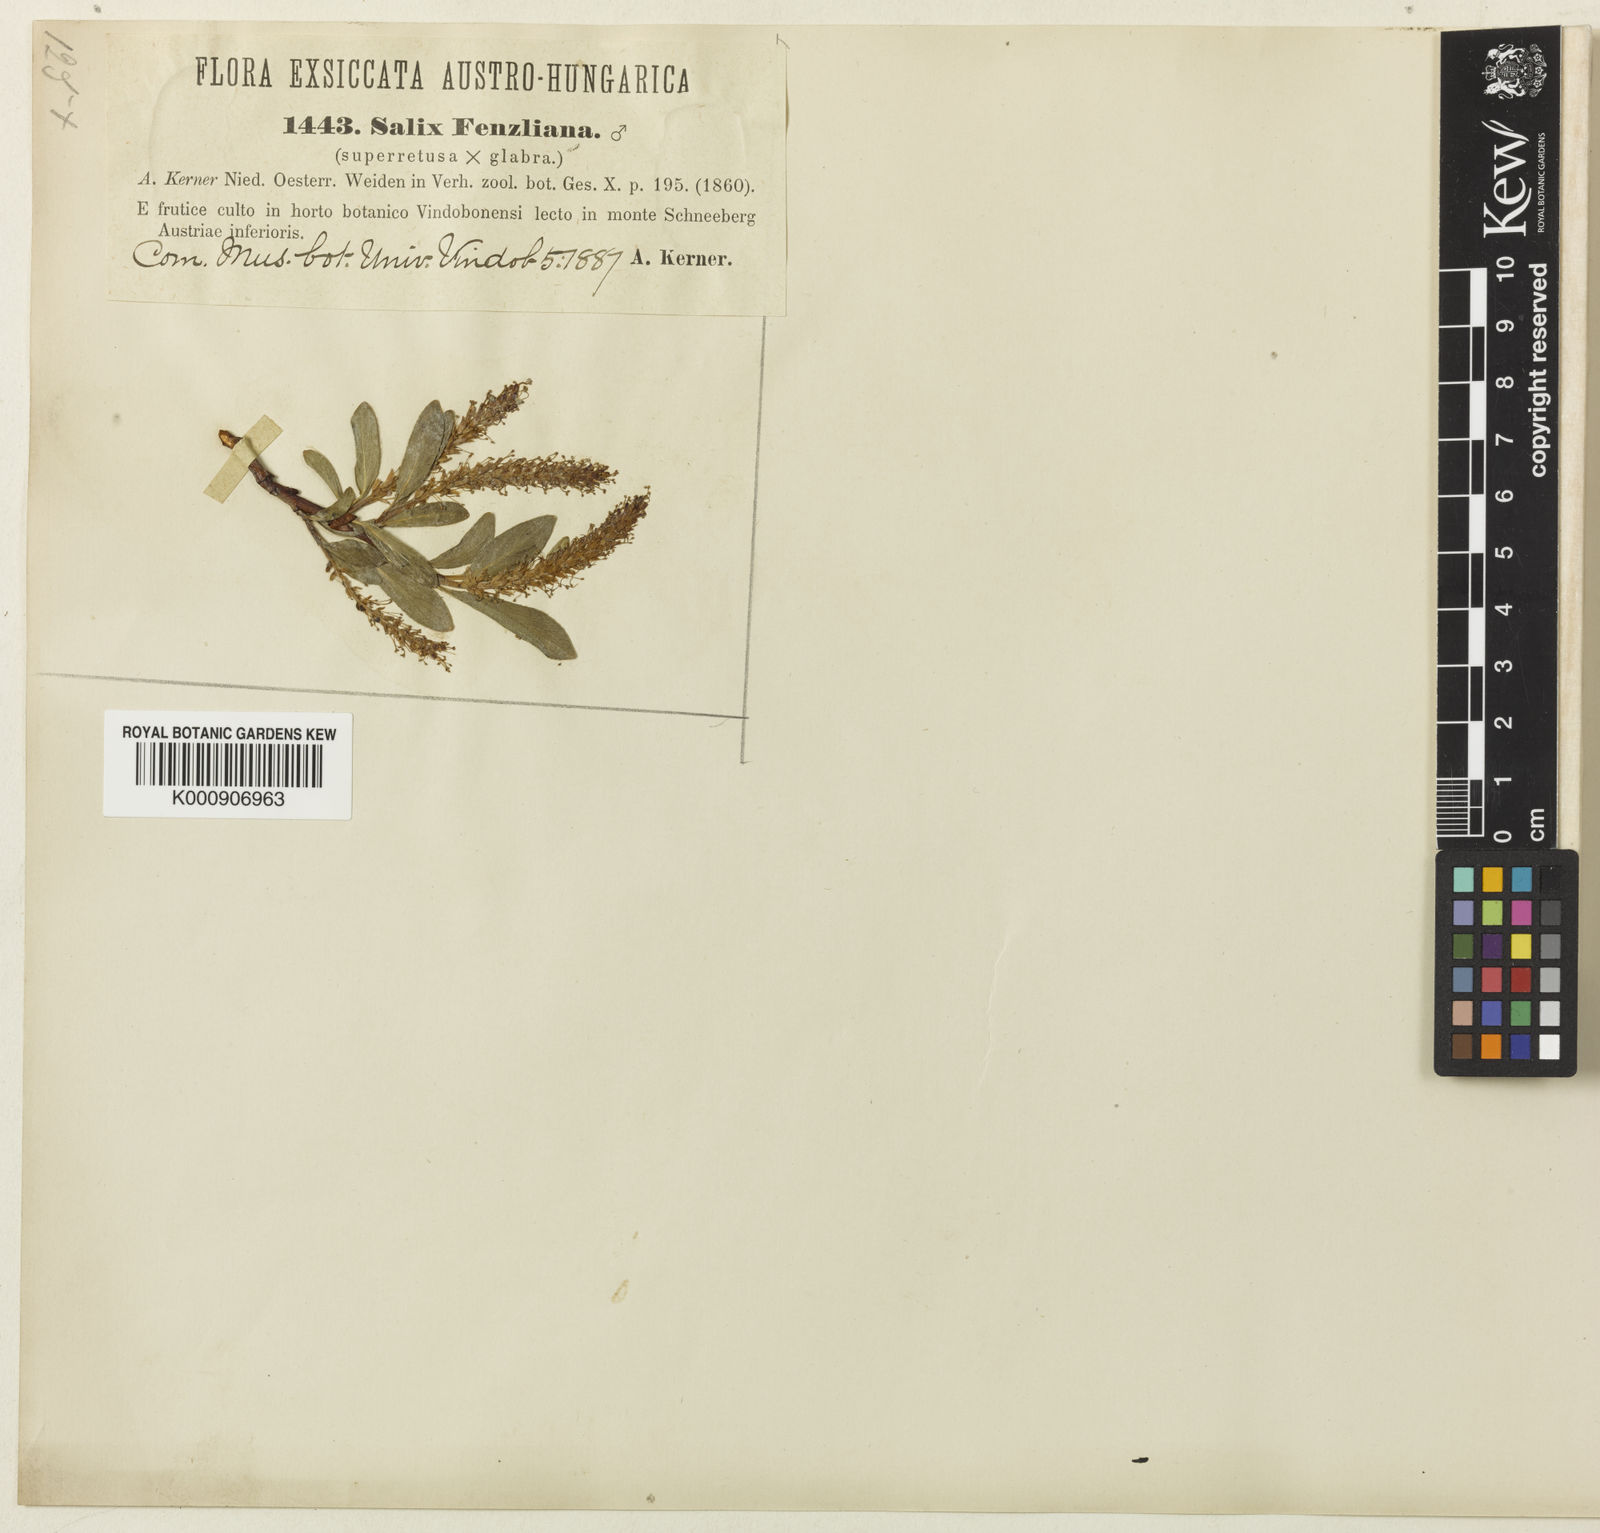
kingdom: Plantae
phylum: Tracheophyta
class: Magnoliopsida
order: Malpighiales
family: Salicaceae
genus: Salix
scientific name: Salix
